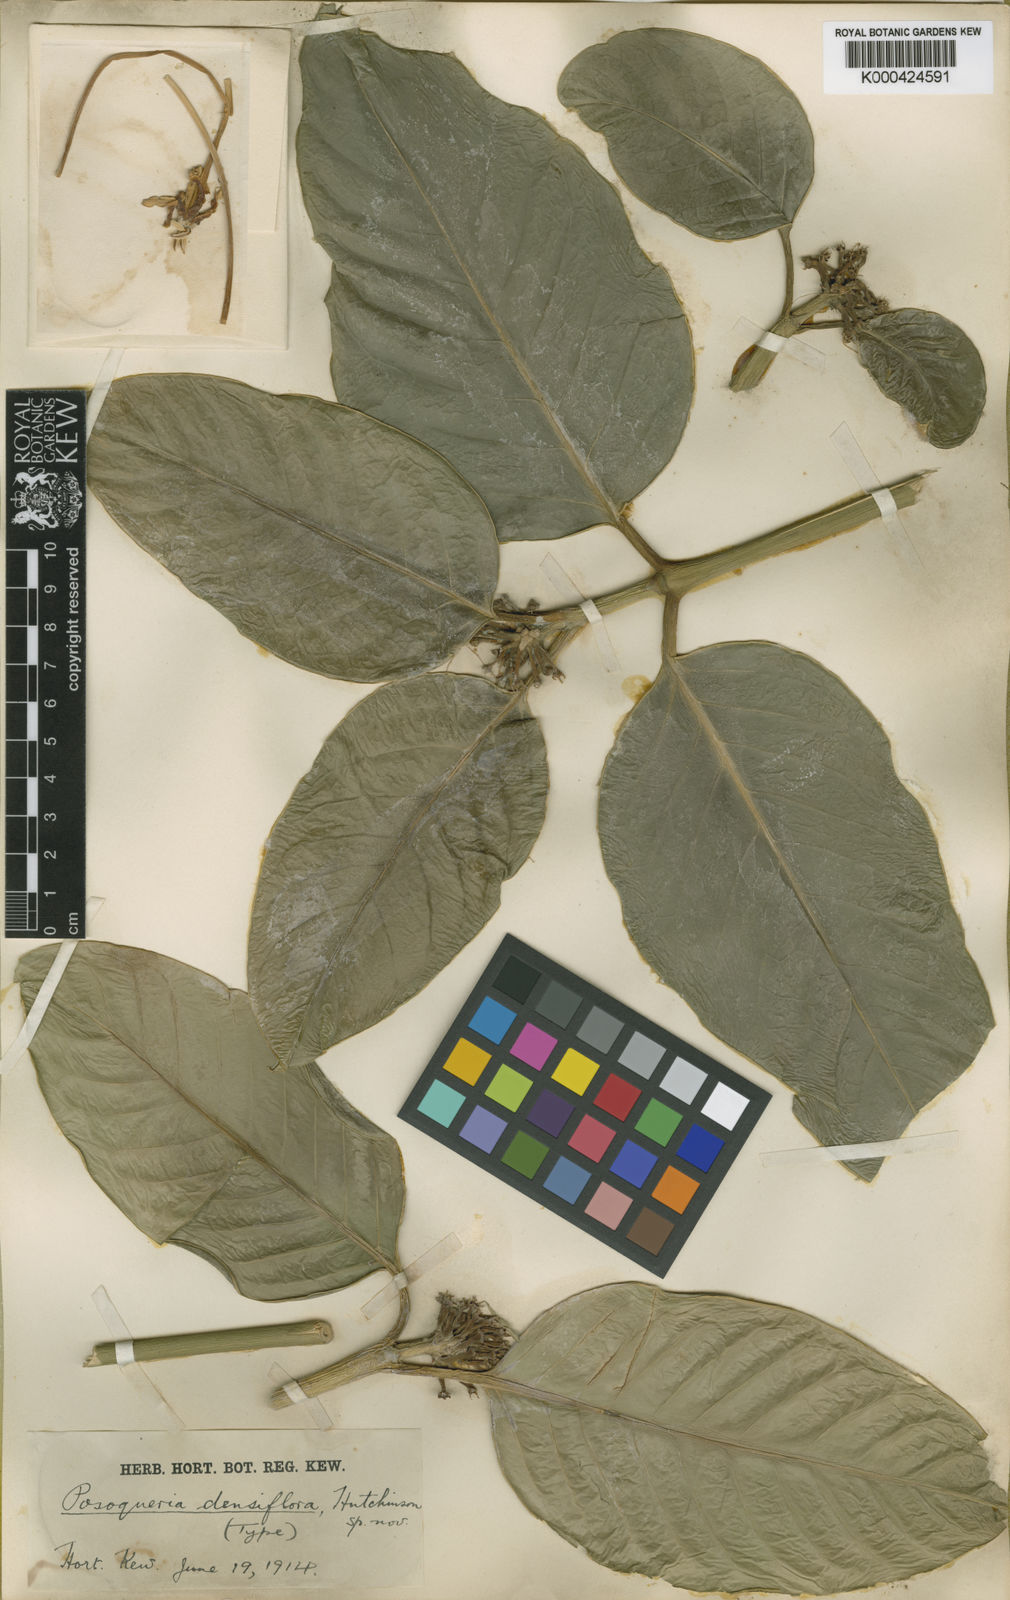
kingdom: Plantae
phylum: Tracheophyta
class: Magnoliopsida
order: Gentianales
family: Rubiaceae
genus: Benkara
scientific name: Benkara malabarica
